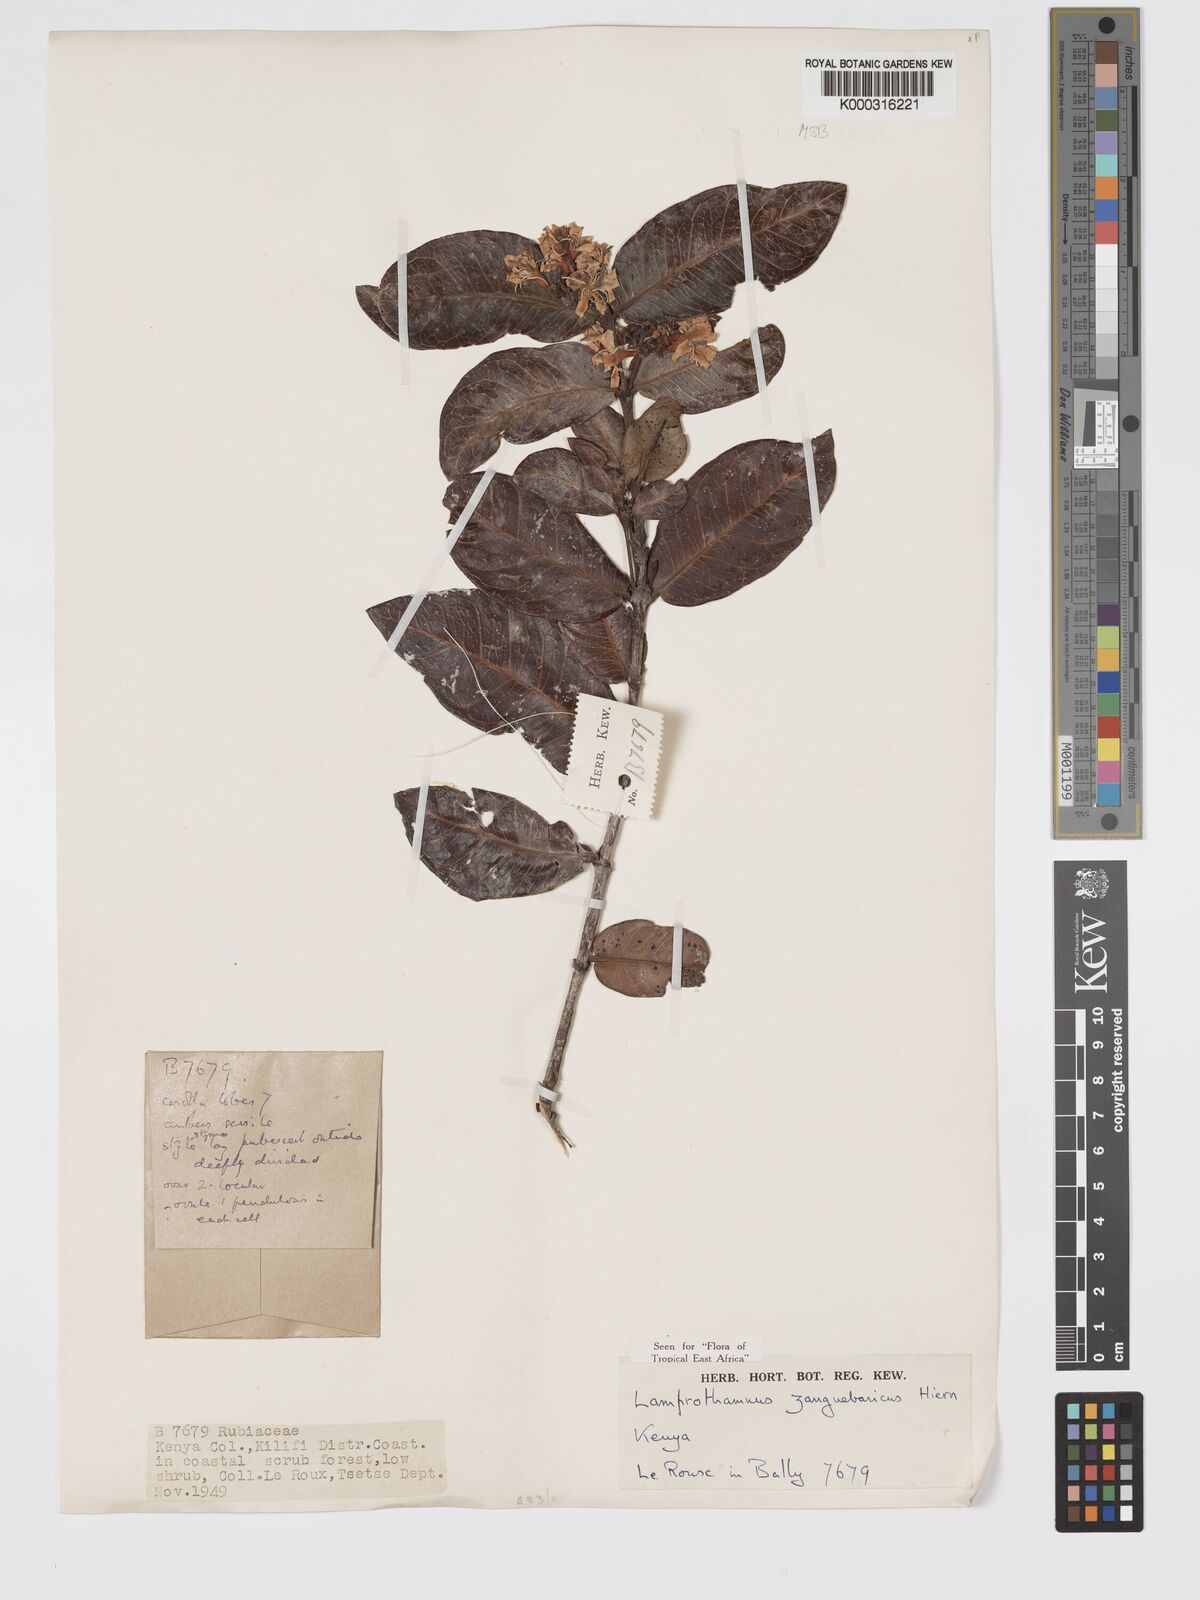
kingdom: Plantae
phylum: Tracheophyta
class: Magnoliopsida
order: Gentianales
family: Rubiaceae
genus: Lamprothamnus
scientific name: Lamprothamnus zanguebaricus
